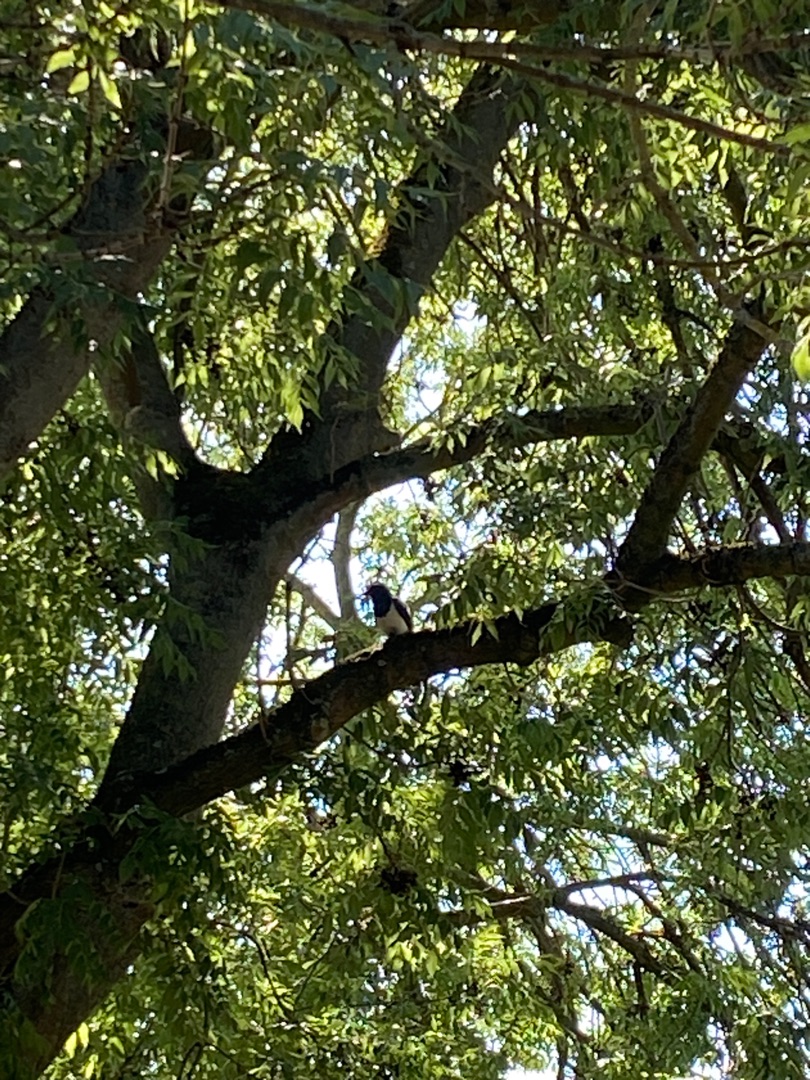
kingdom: Animalia
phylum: Chordata
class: Aves
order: Passeriformes
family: Corvidae
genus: Pica
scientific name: Pica pica
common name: Husskade
